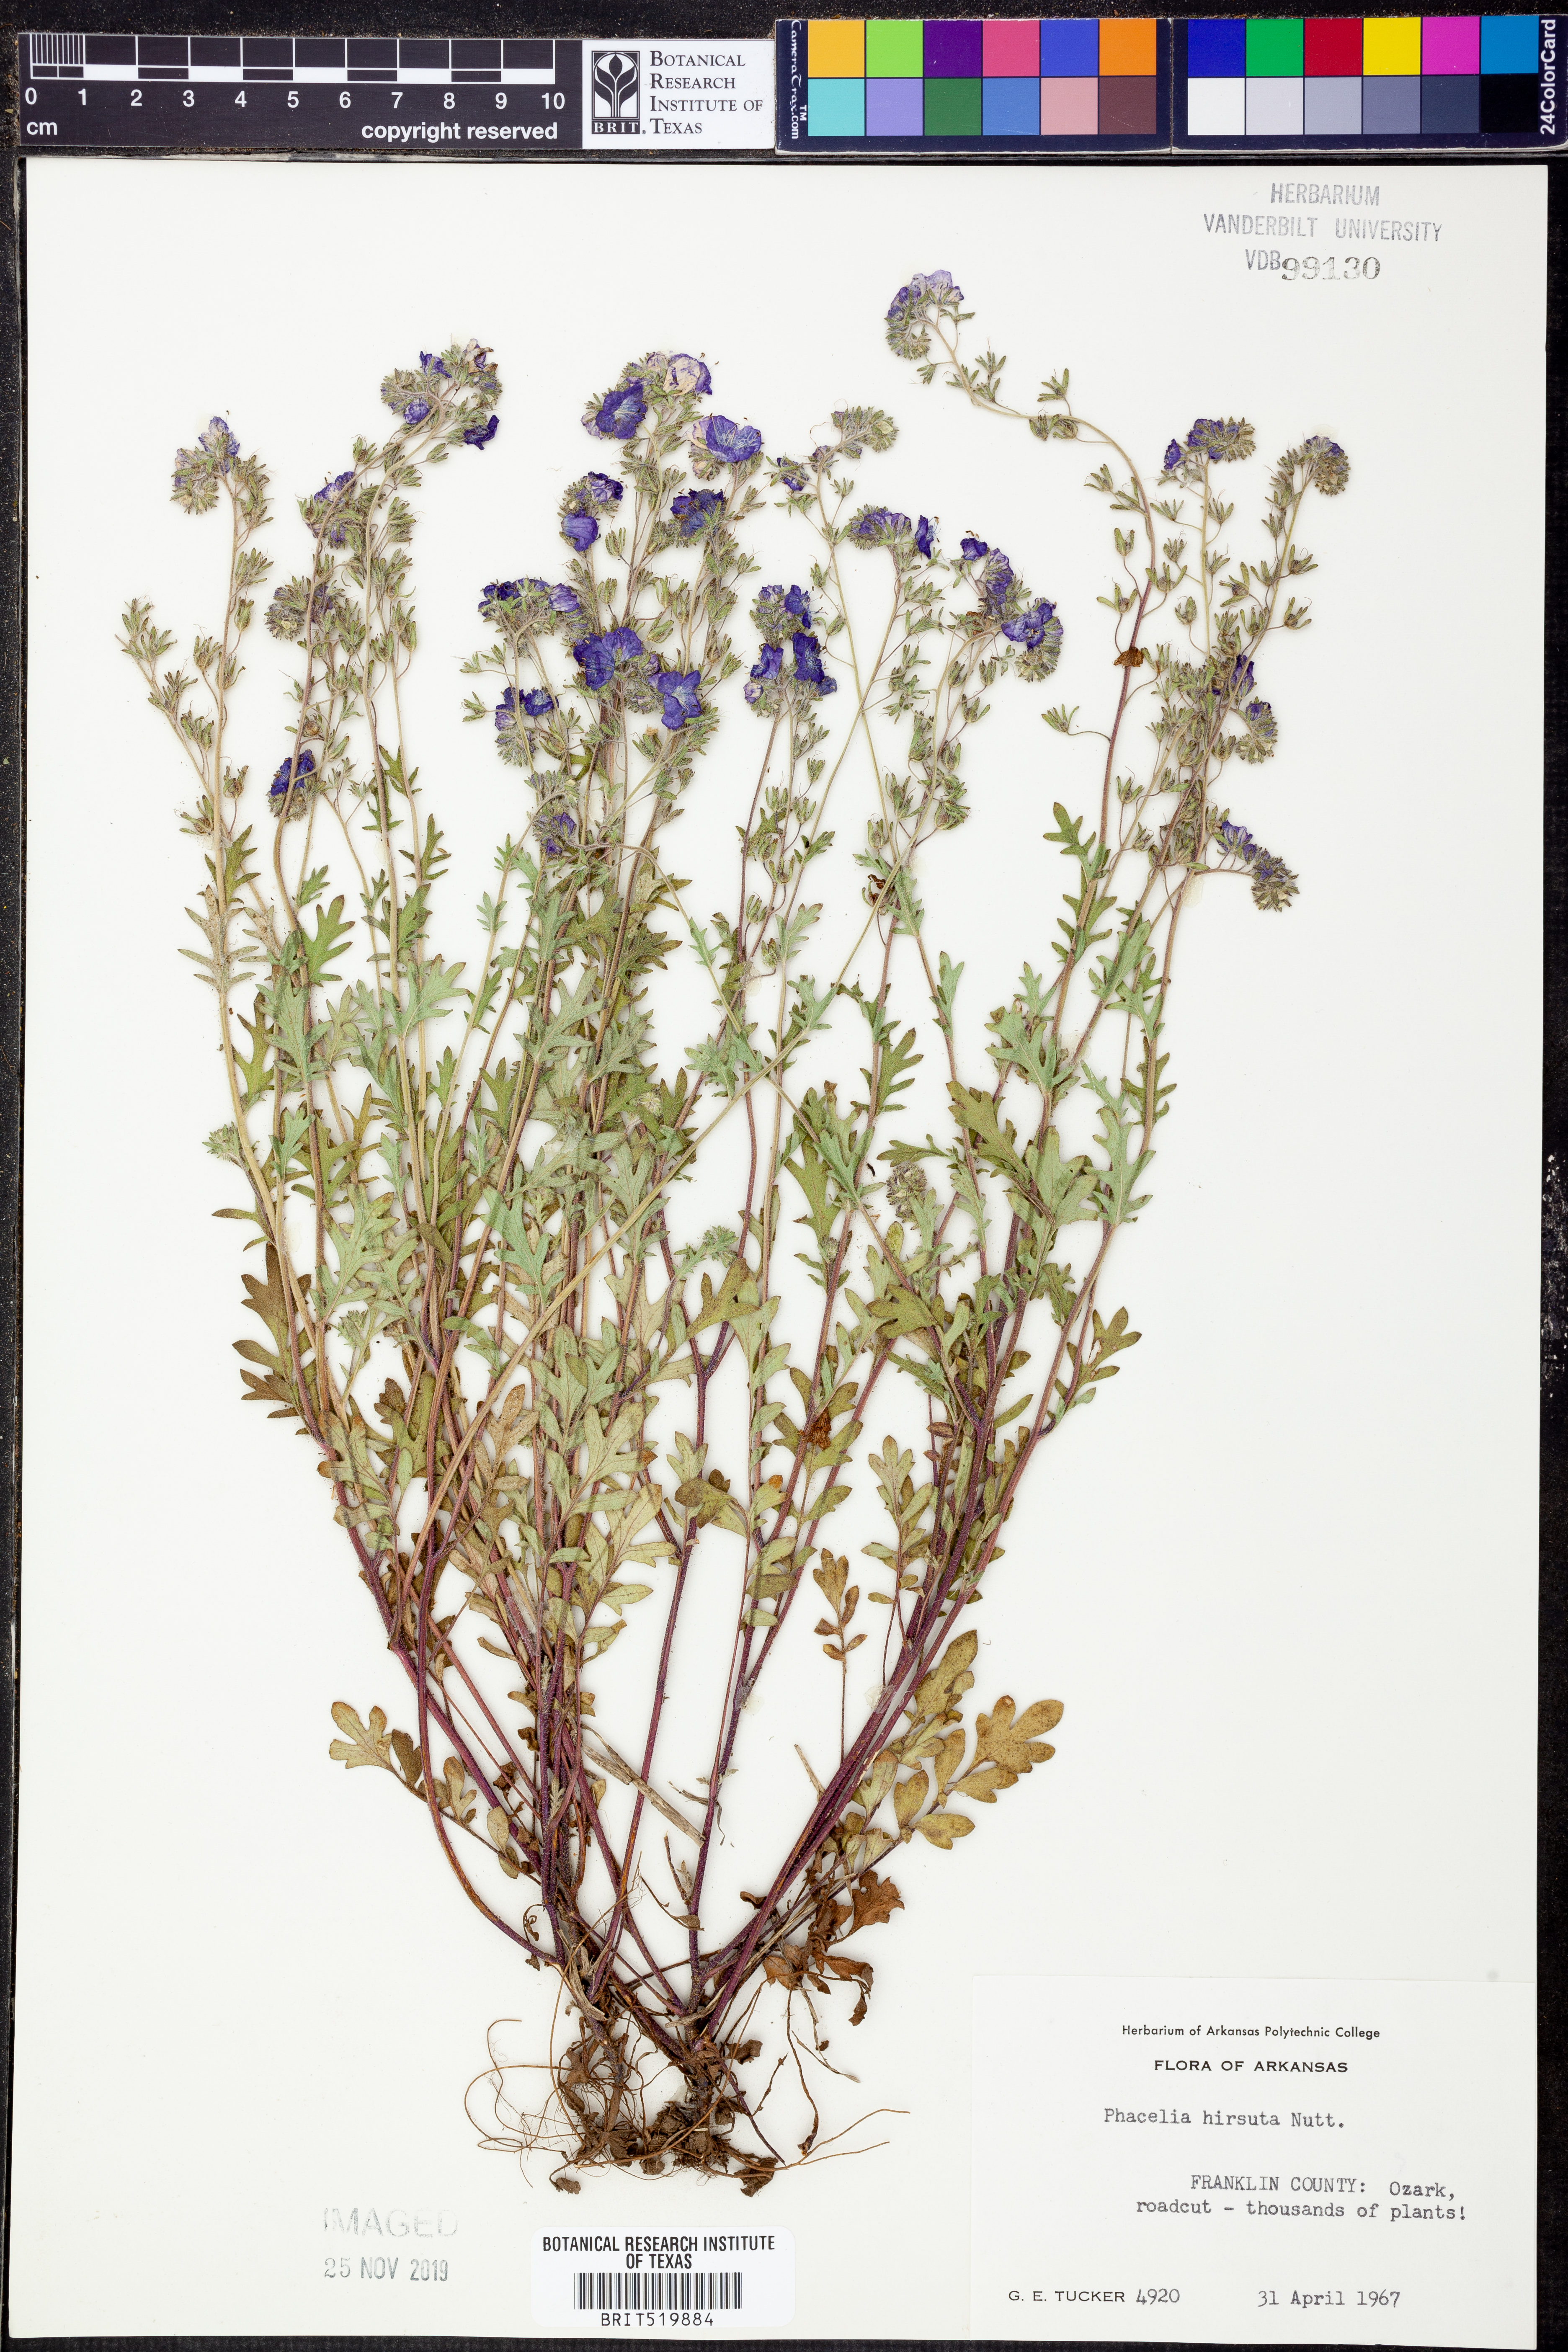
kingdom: Plantae
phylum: Tracheophyta
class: Magnoliopsida
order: Boraginales
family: Hydrophyllaceae
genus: Phacelia
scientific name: Phacelia hirsuta
